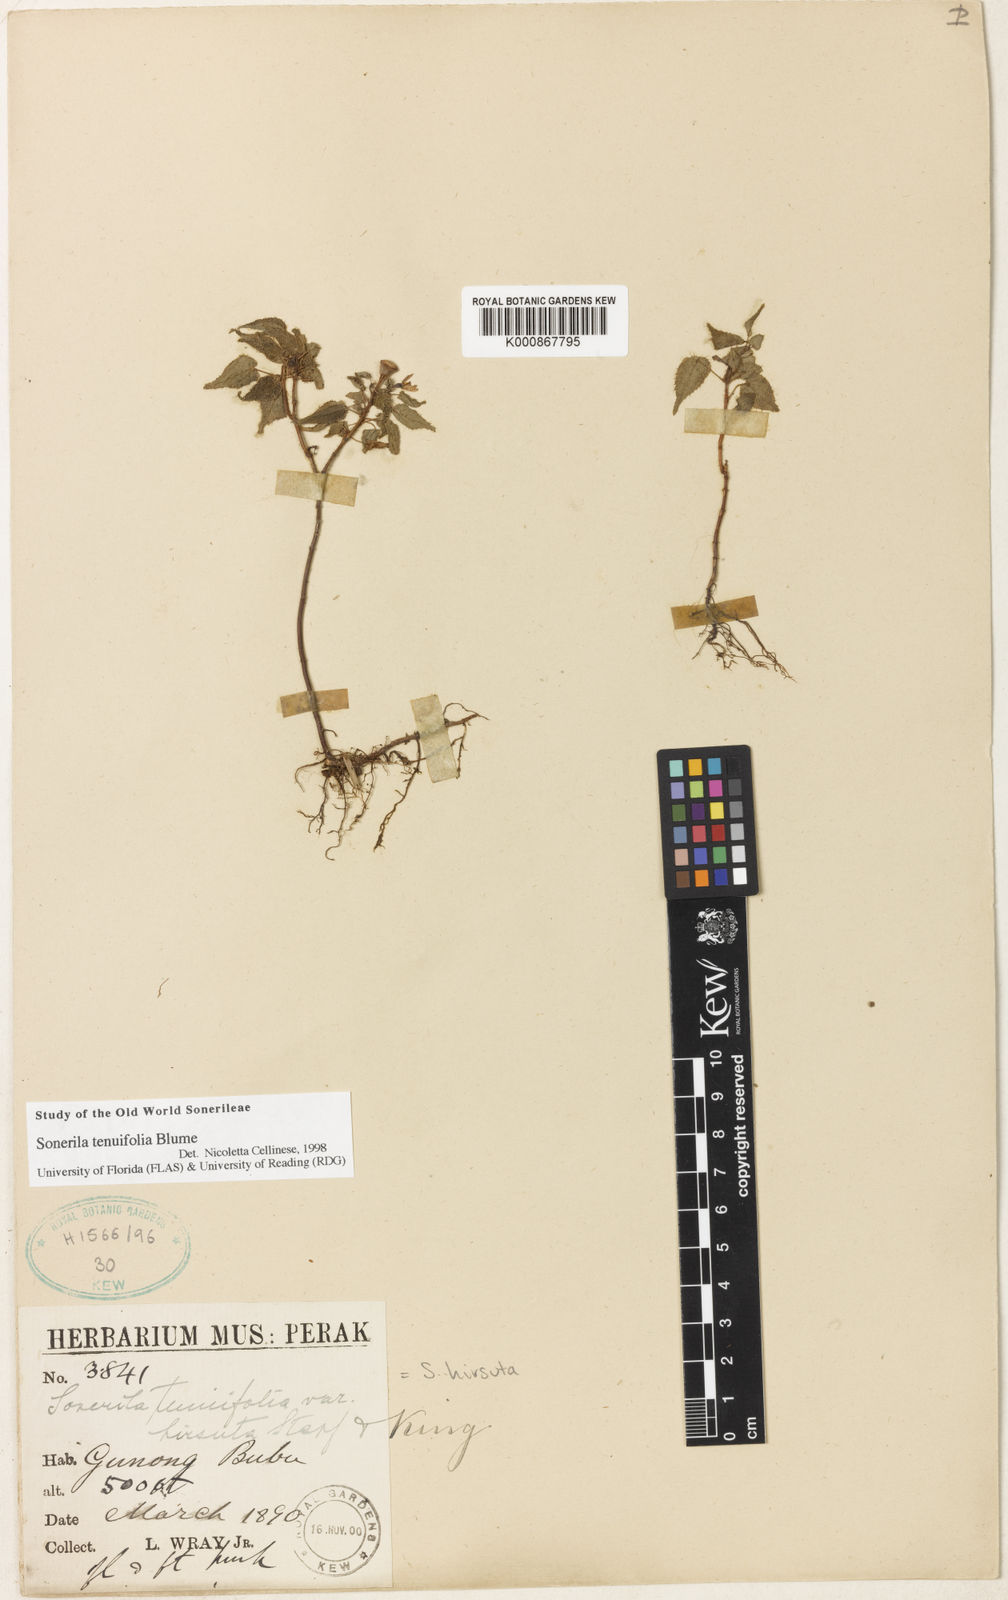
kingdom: Plantae
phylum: Tracheophyta
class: Magnoliopsida
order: Myrtales
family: Melastomataceae
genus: Sonerila
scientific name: Sonerila tenuifolia
